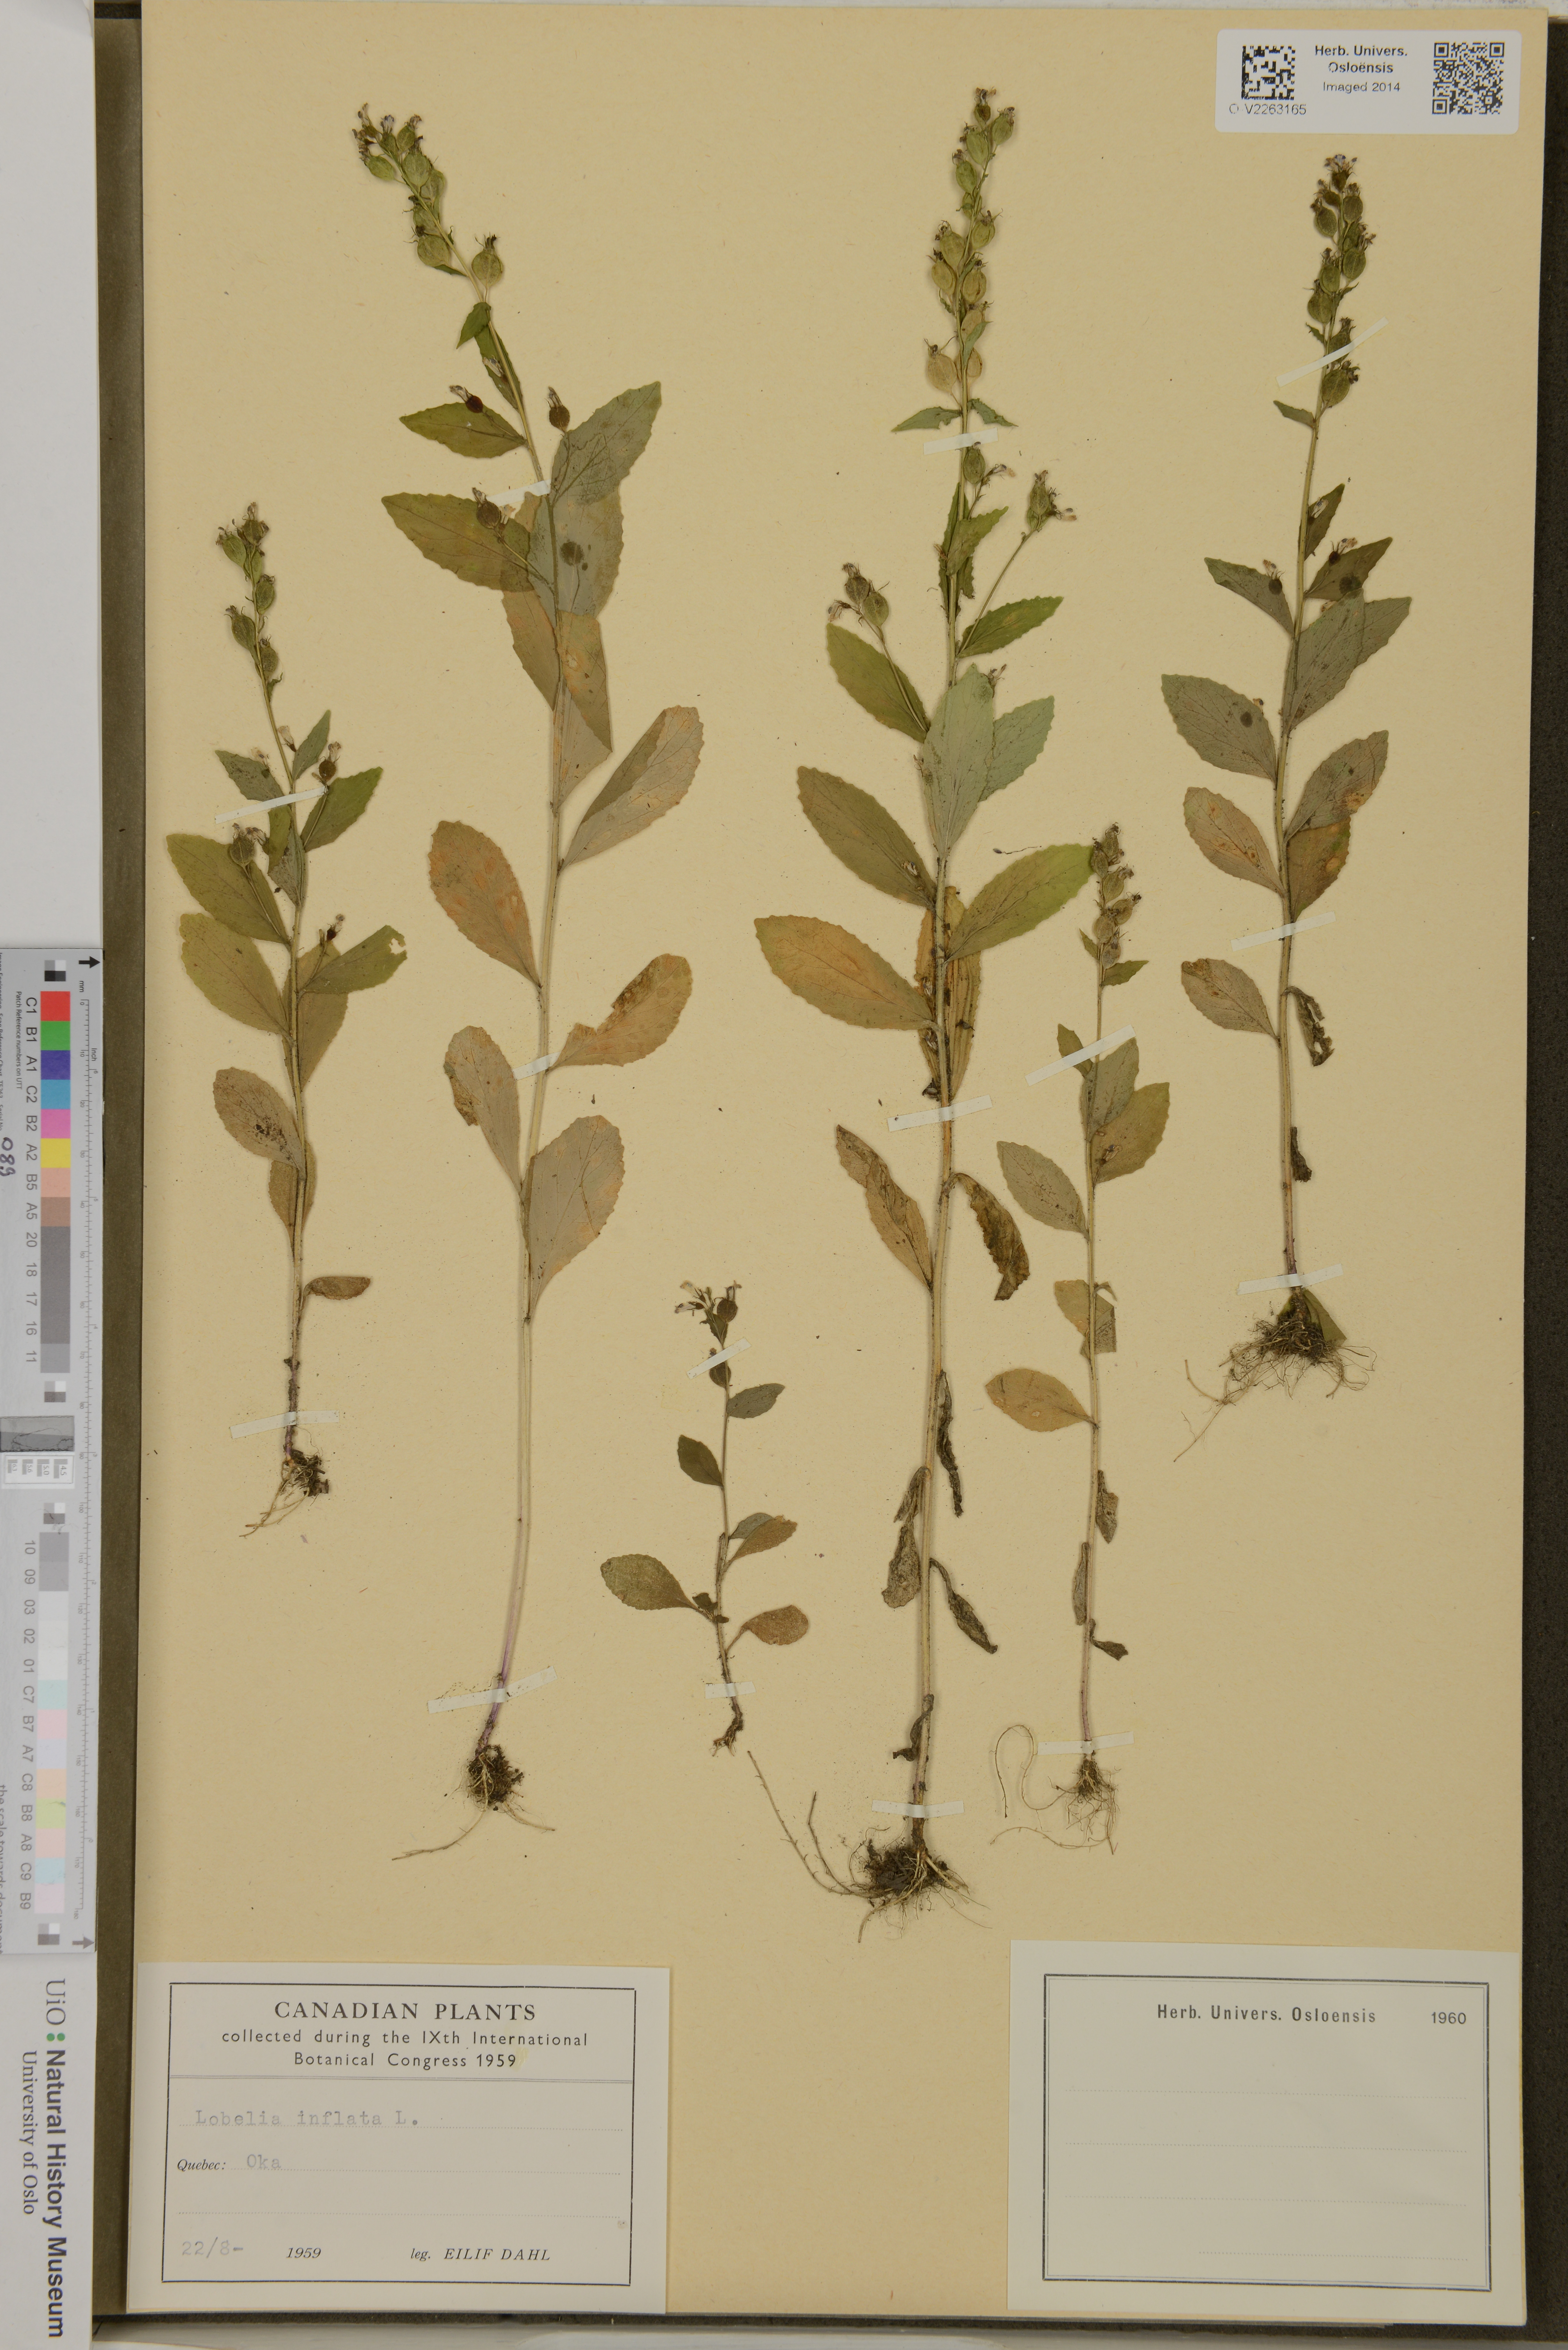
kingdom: Plantae
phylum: Tracheophyta
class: Magnoliopsida
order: Asterales
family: Campanulaceae
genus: Lobelia
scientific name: Lobelia inflata
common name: Indian tobacco
